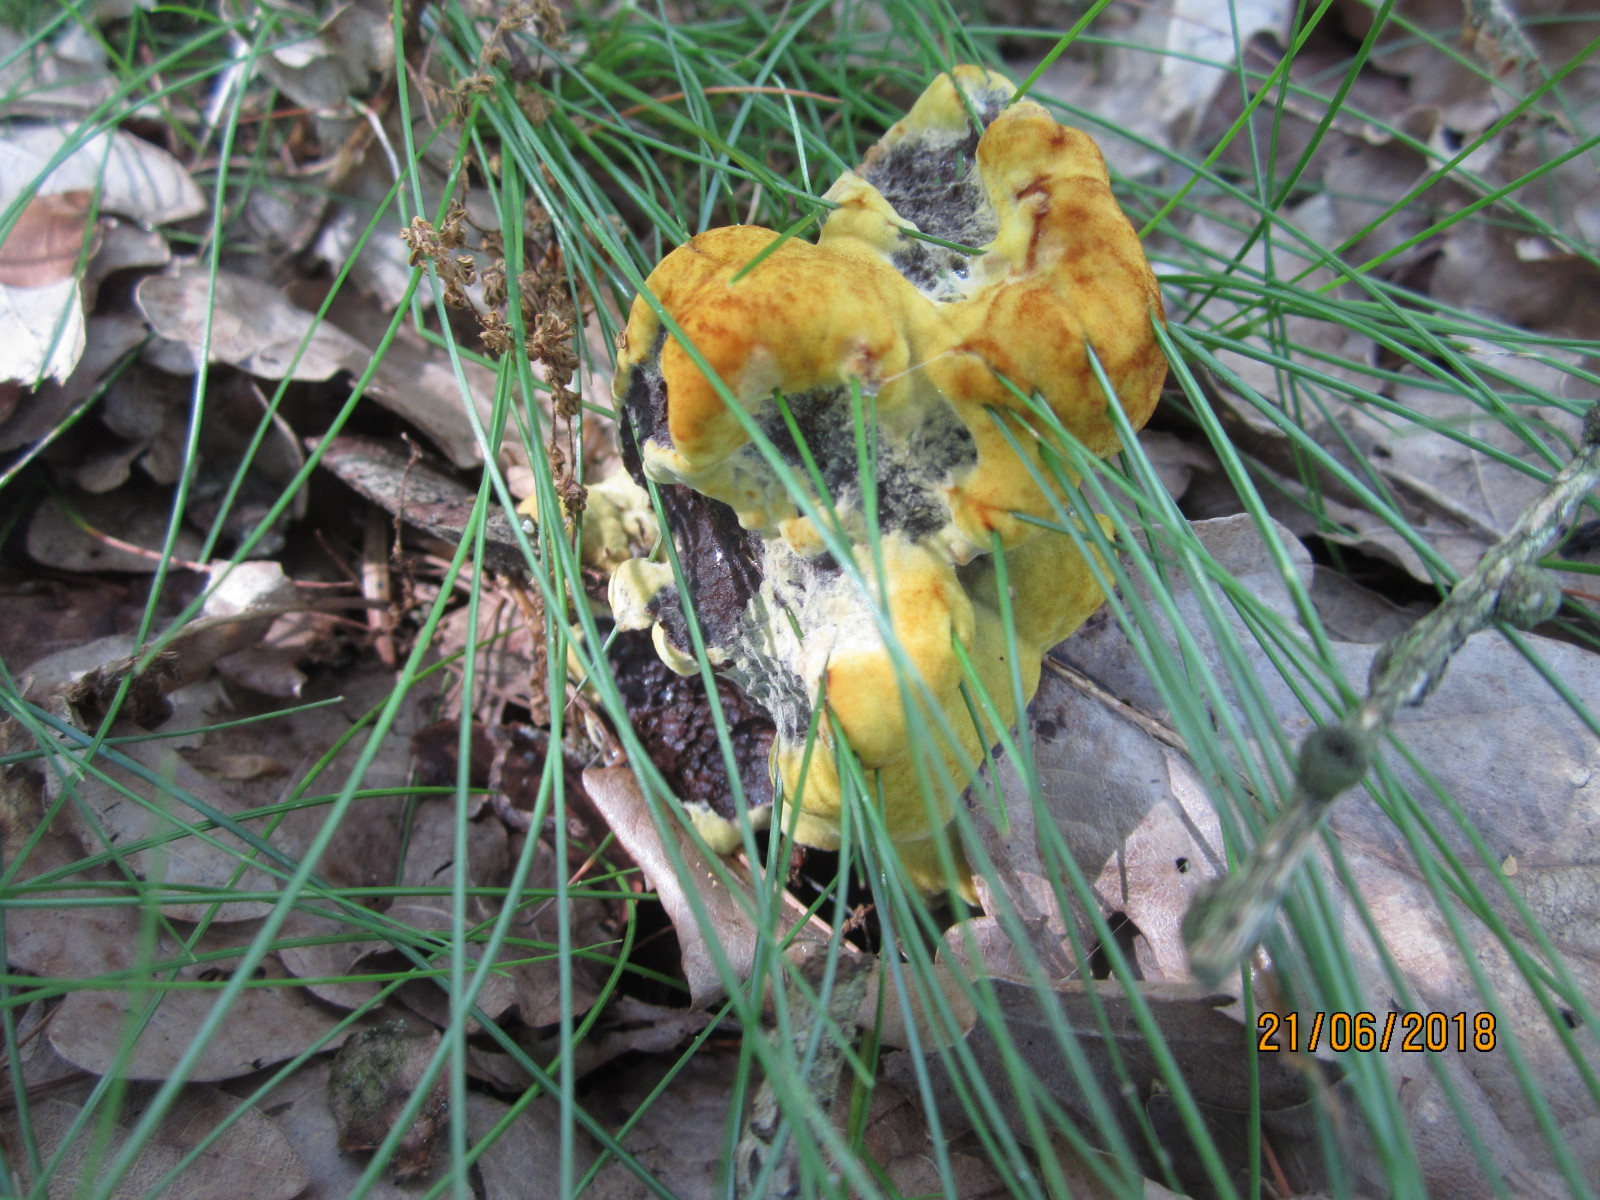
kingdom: Fungi
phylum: Basidiomycota
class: Agaricomycetes
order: Polyporales
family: Laetiporaceae
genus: Phaeolus
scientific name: Phaeolus schweinitzii
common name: brunporesvamp
